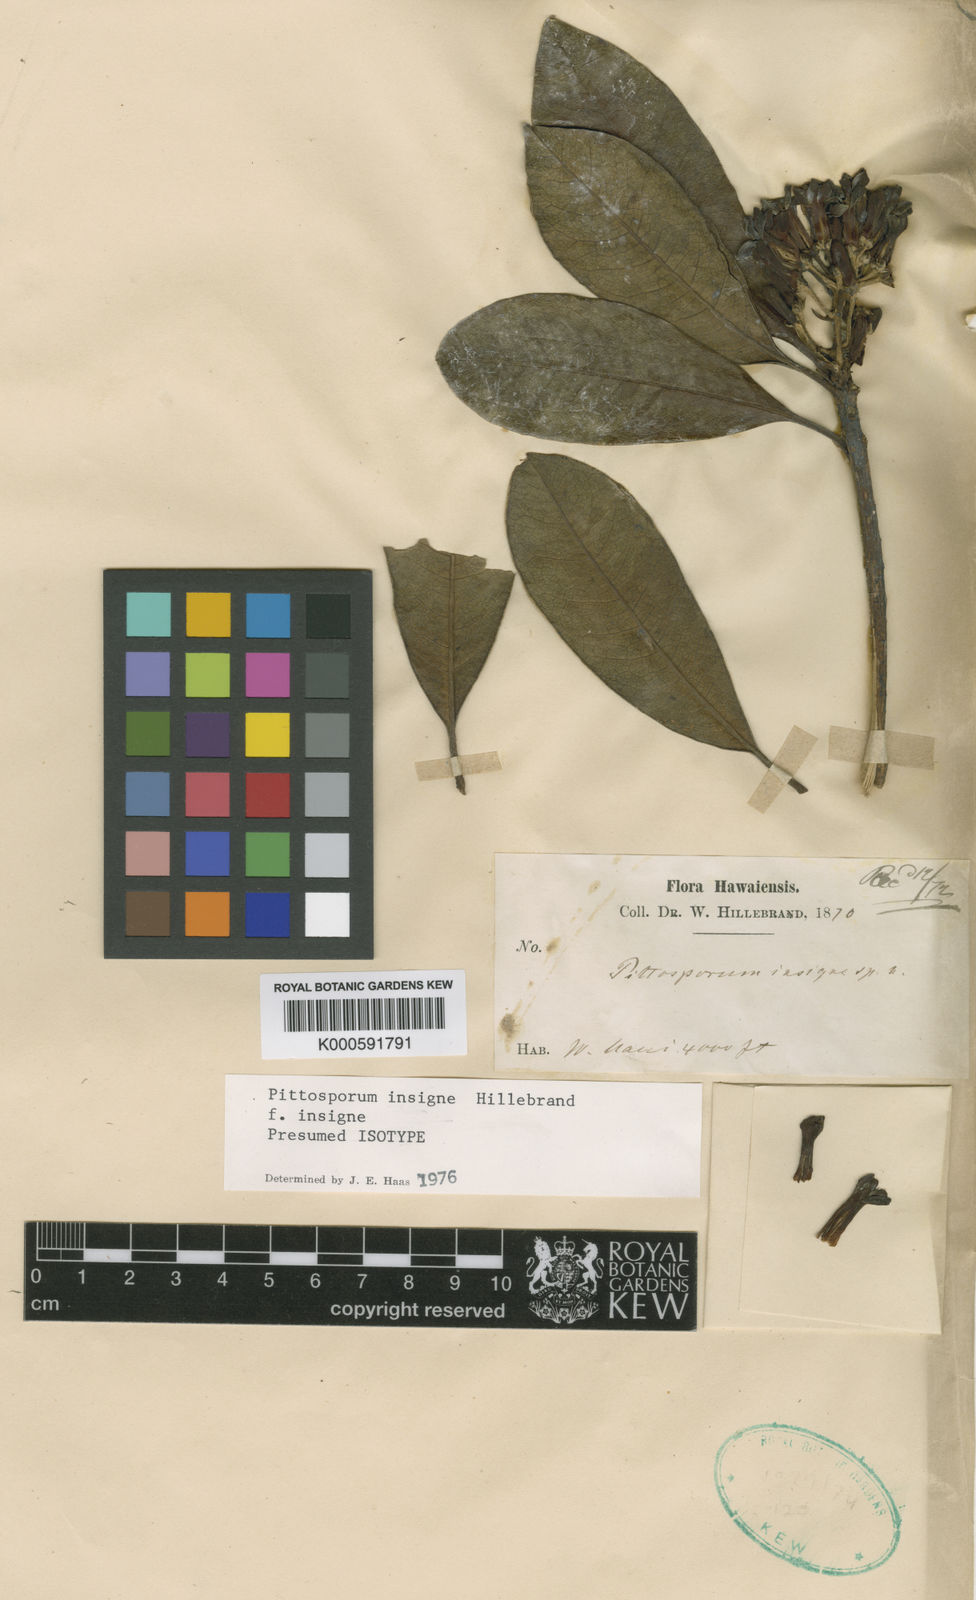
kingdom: Plantae
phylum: Tracheophyta
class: Magnoliopsida
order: Apiales
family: Pittosporaceae
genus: Pittosporum
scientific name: Pittosporum glabrum
